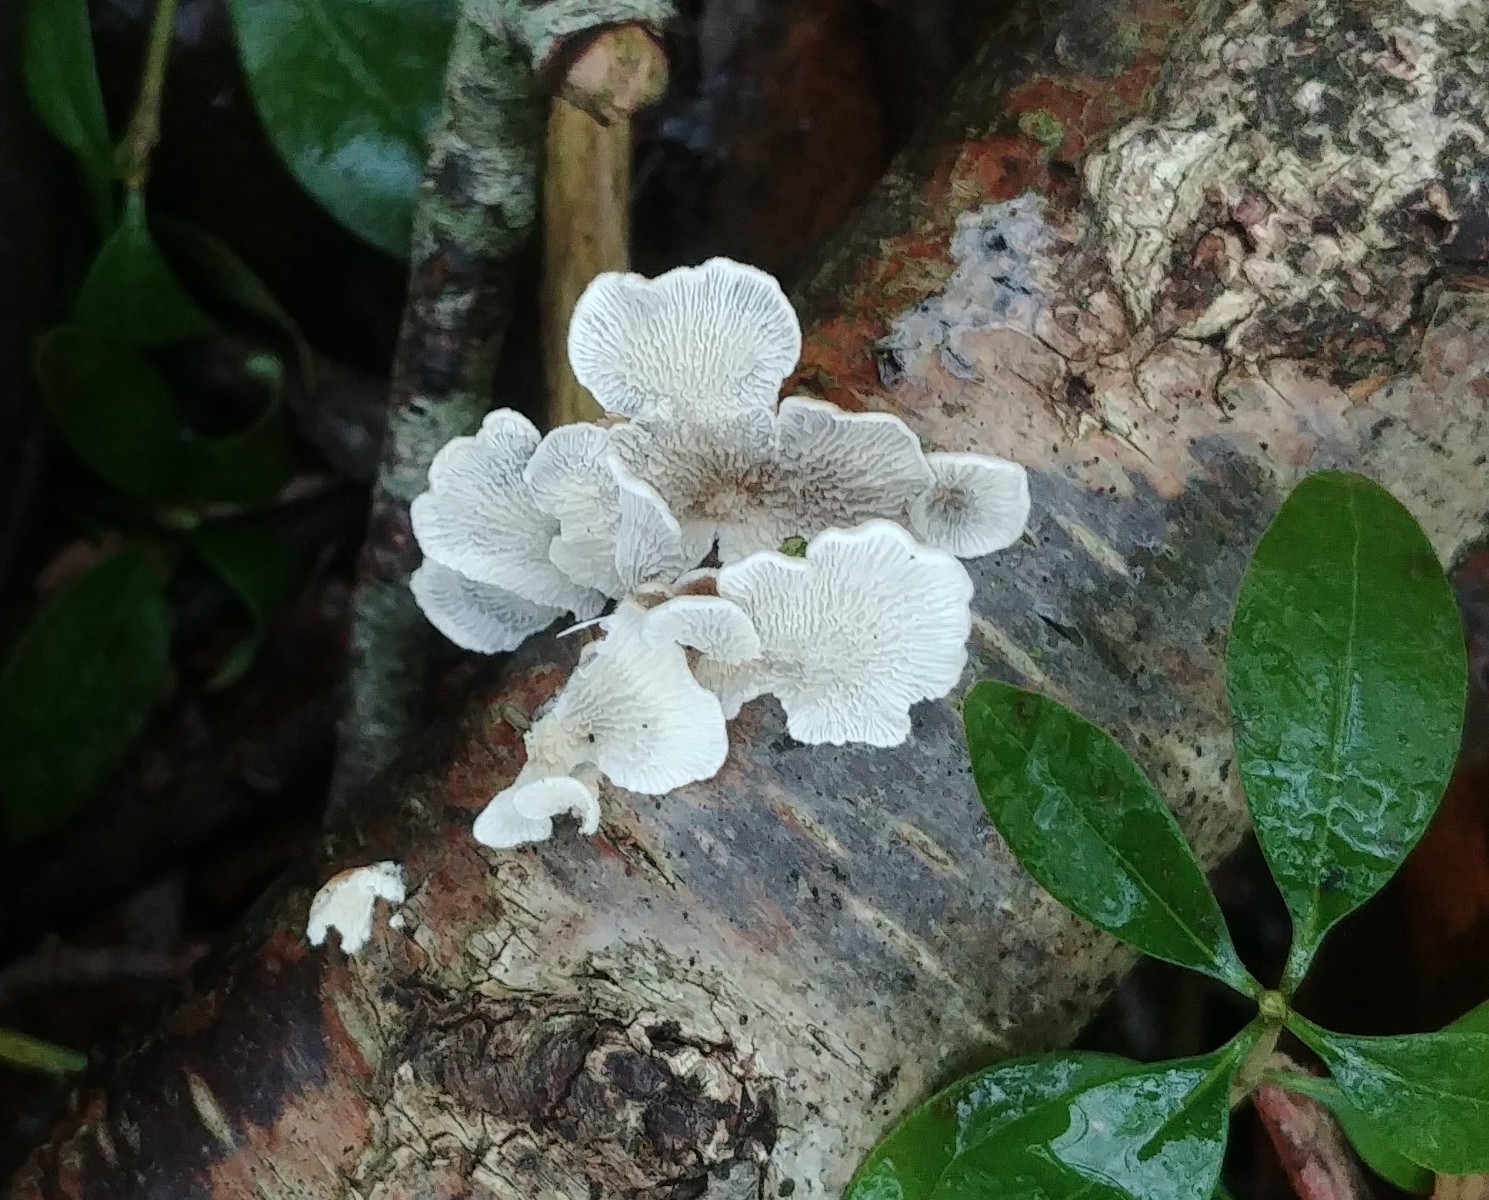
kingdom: Fungi
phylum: Basidiomycota
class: Agaricomycetes
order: Amylocorticiales
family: Amylocorticiaceae
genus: Plicaturopsis
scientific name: Plicaturopsis crispa
